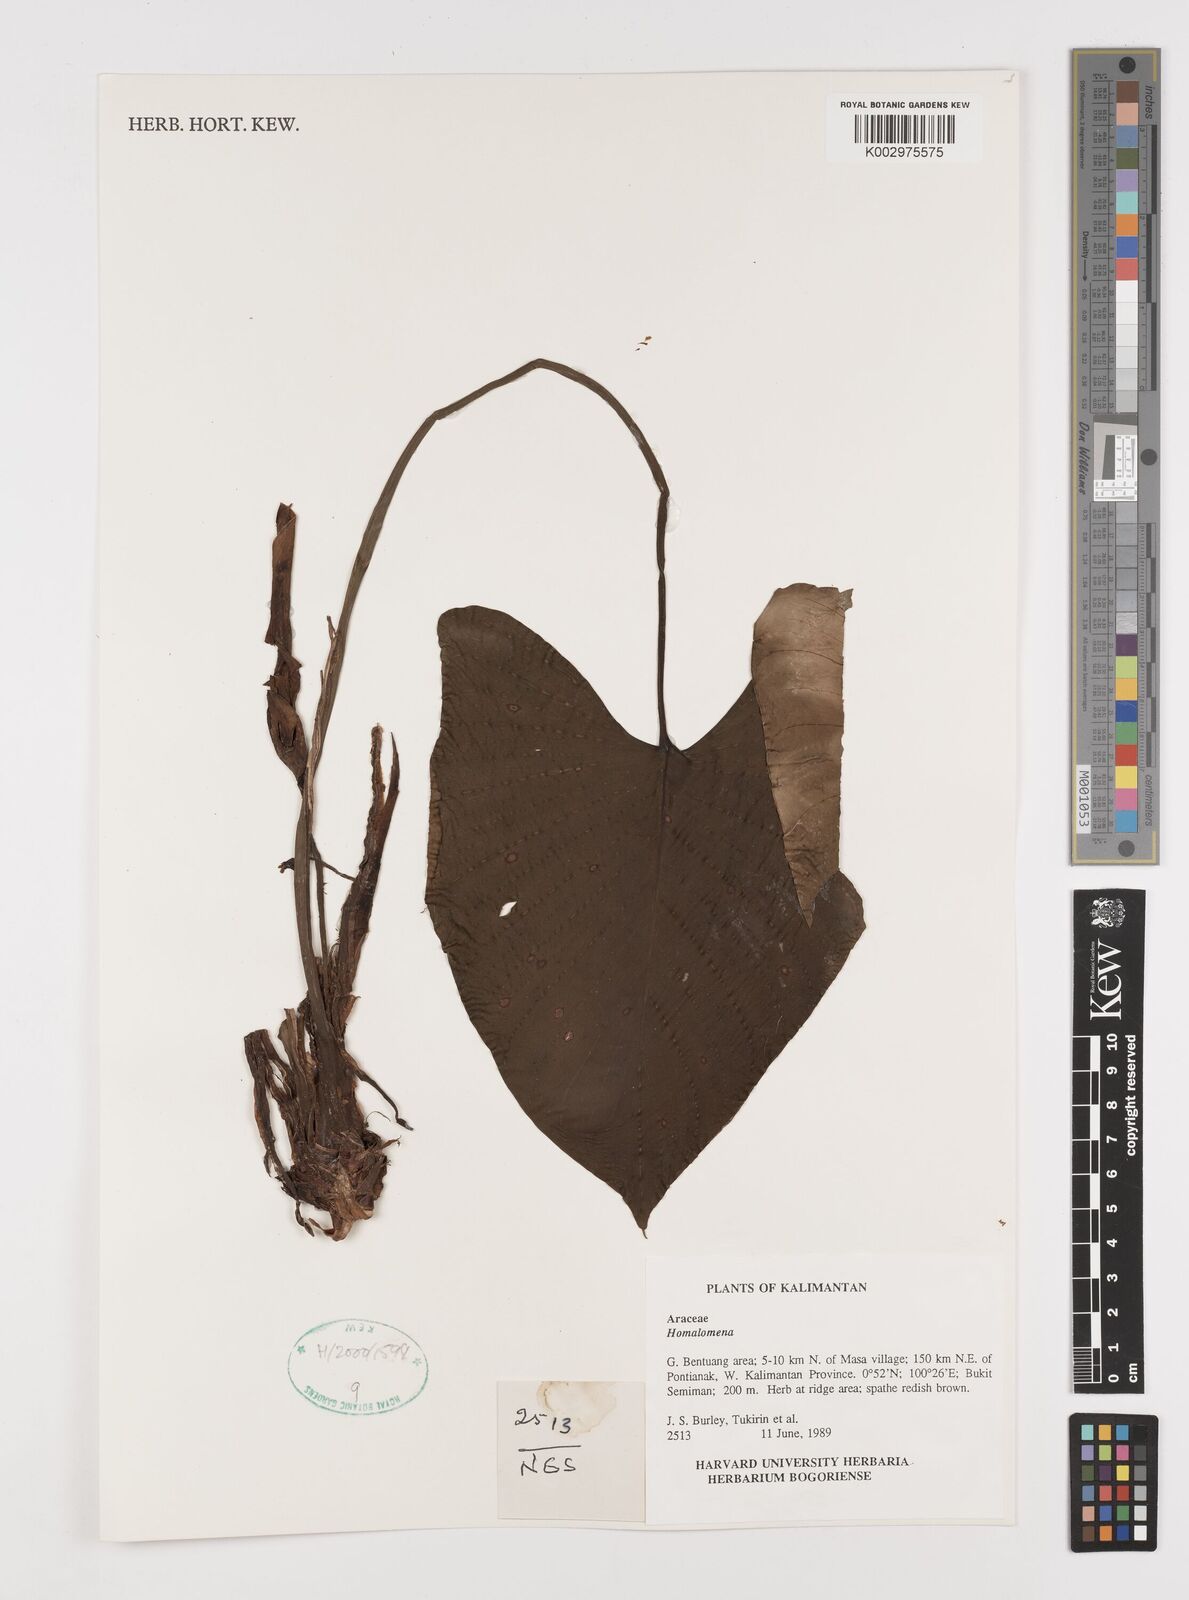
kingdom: Plantae
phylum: Tracheophyta
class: Liliopsida
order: Alismatales
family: Araceae
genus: Homalomena
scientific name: Homalomena
